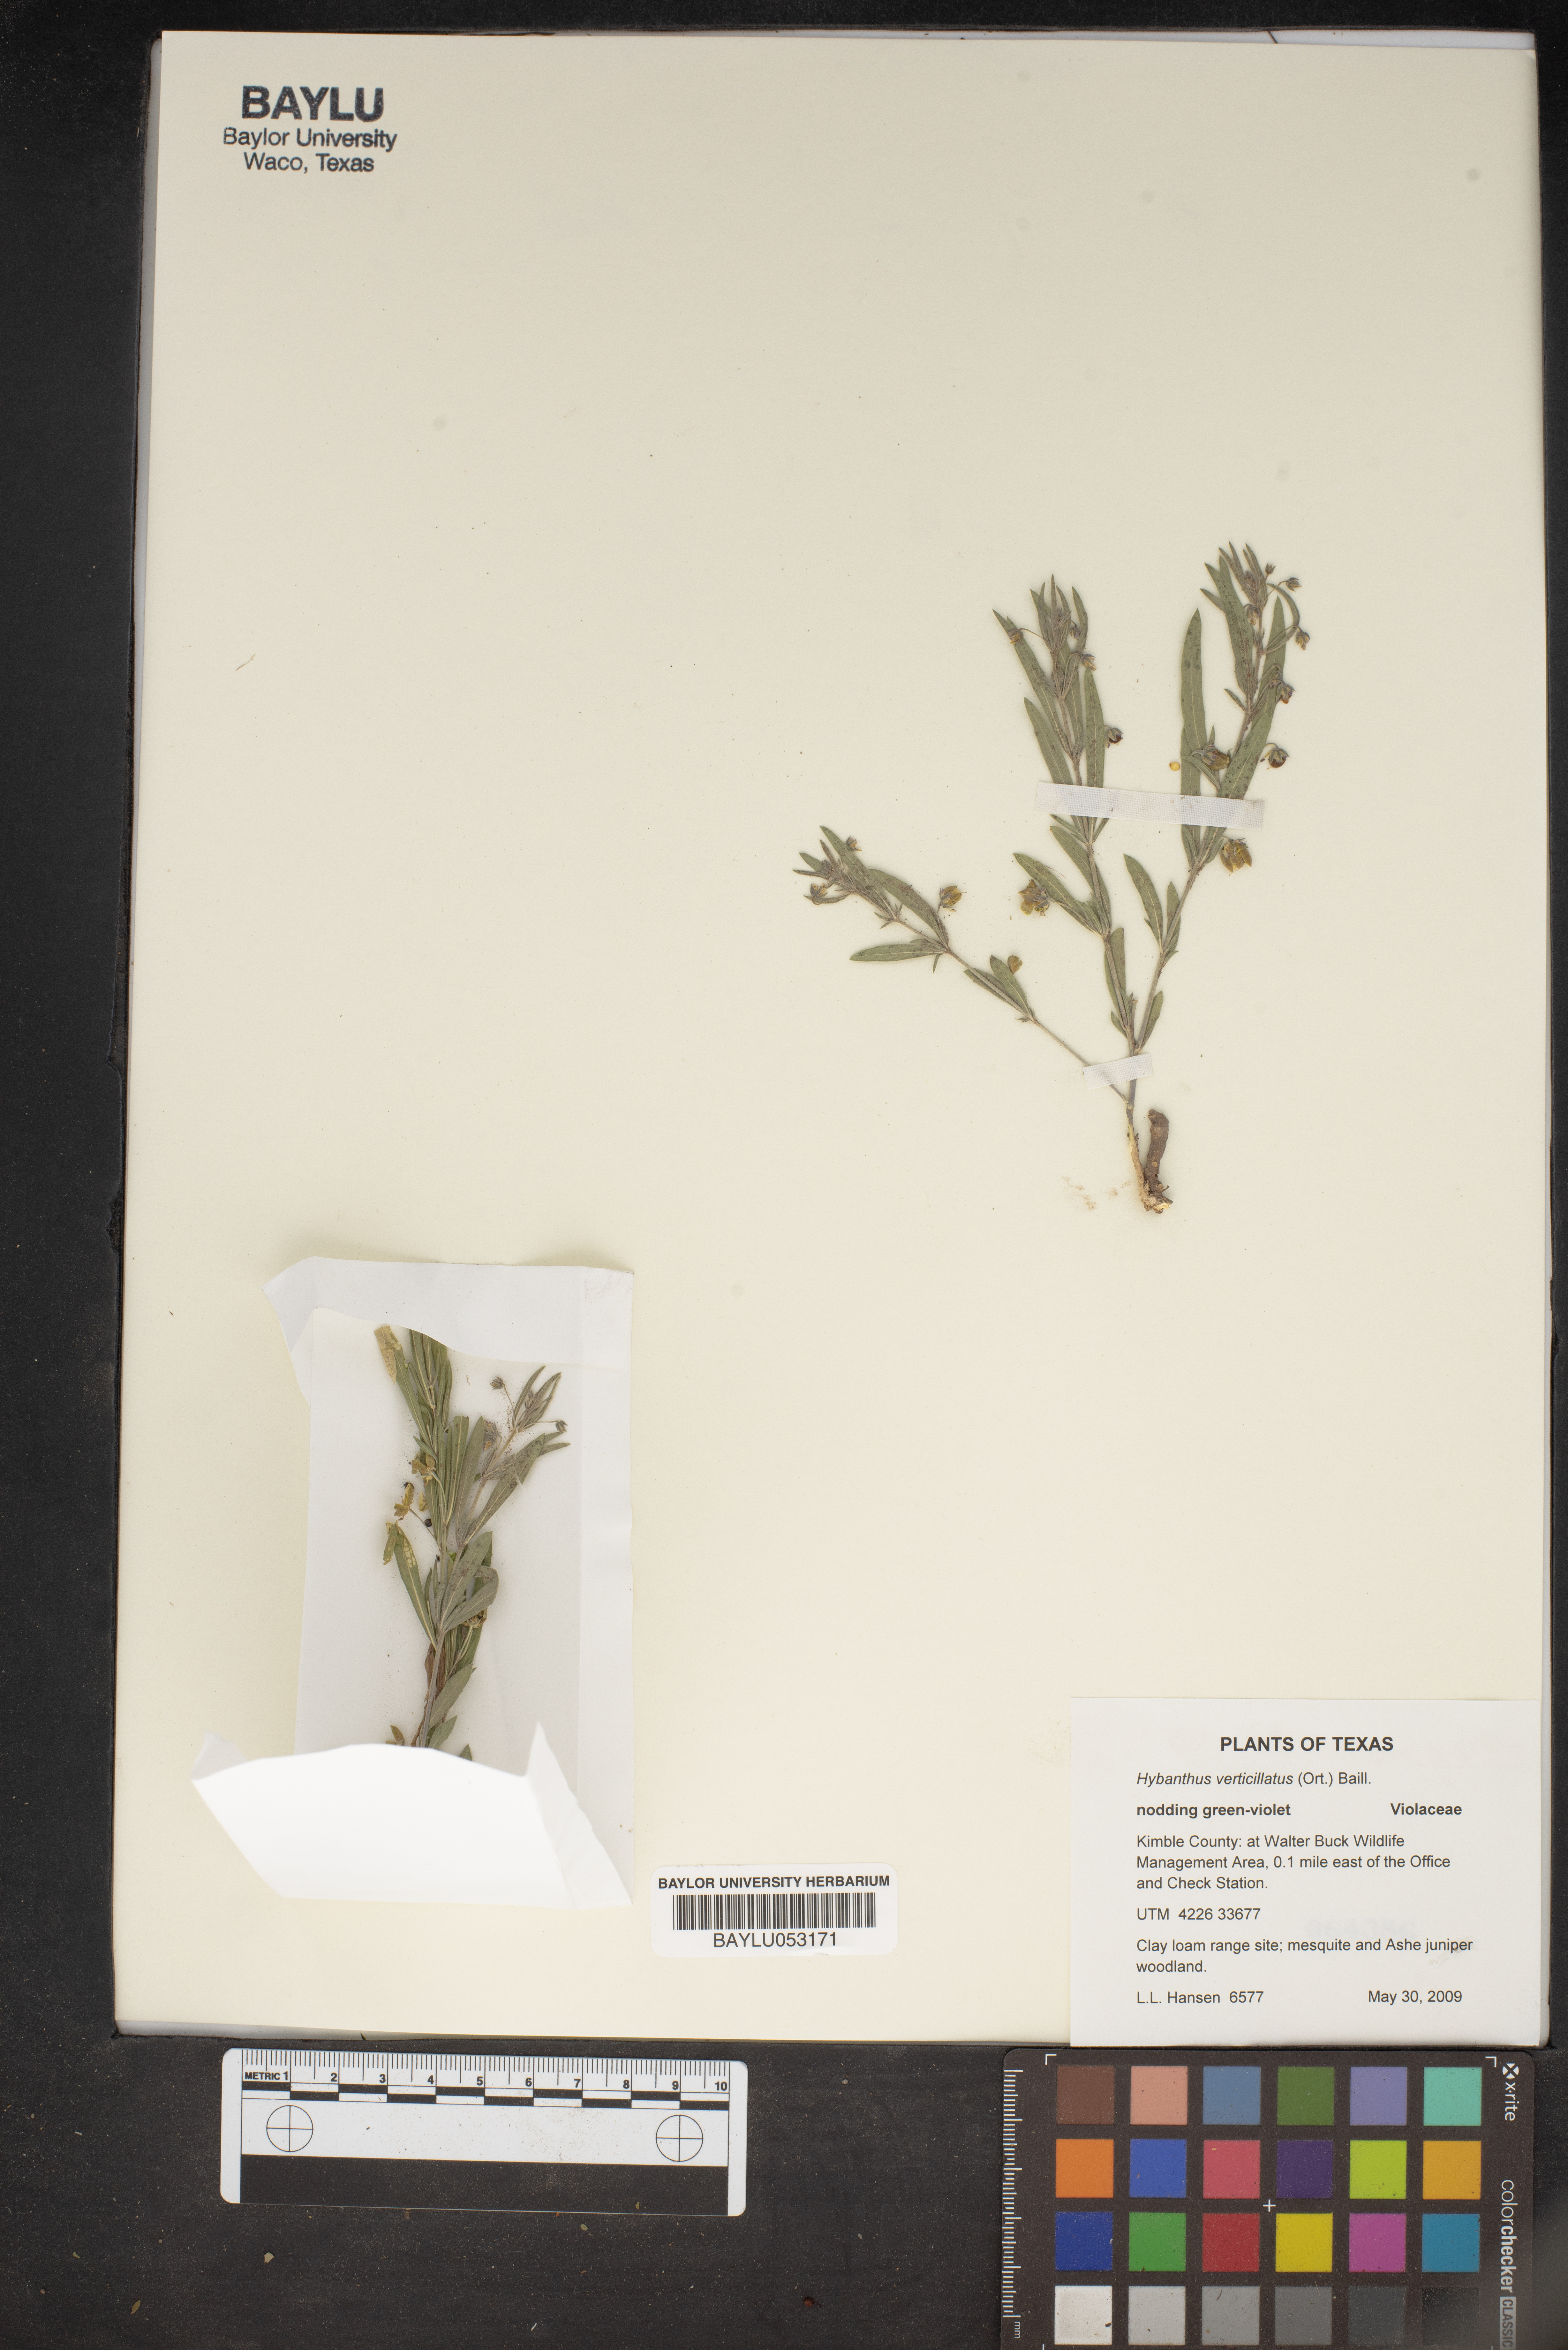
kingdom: Plantae
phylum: Tracheophyta
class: Magnoliopsida
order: Malpighiales
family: Violaceae
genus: Pombalia
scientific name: Pombalia verticillata
